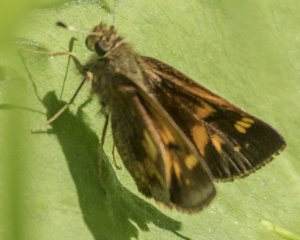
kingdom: Animalia
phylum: Arthropoda
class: Insecta
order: Lepidoptera
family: Hesperiidae
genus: Polites
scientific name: Polites coras
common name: Peck's Skipper
